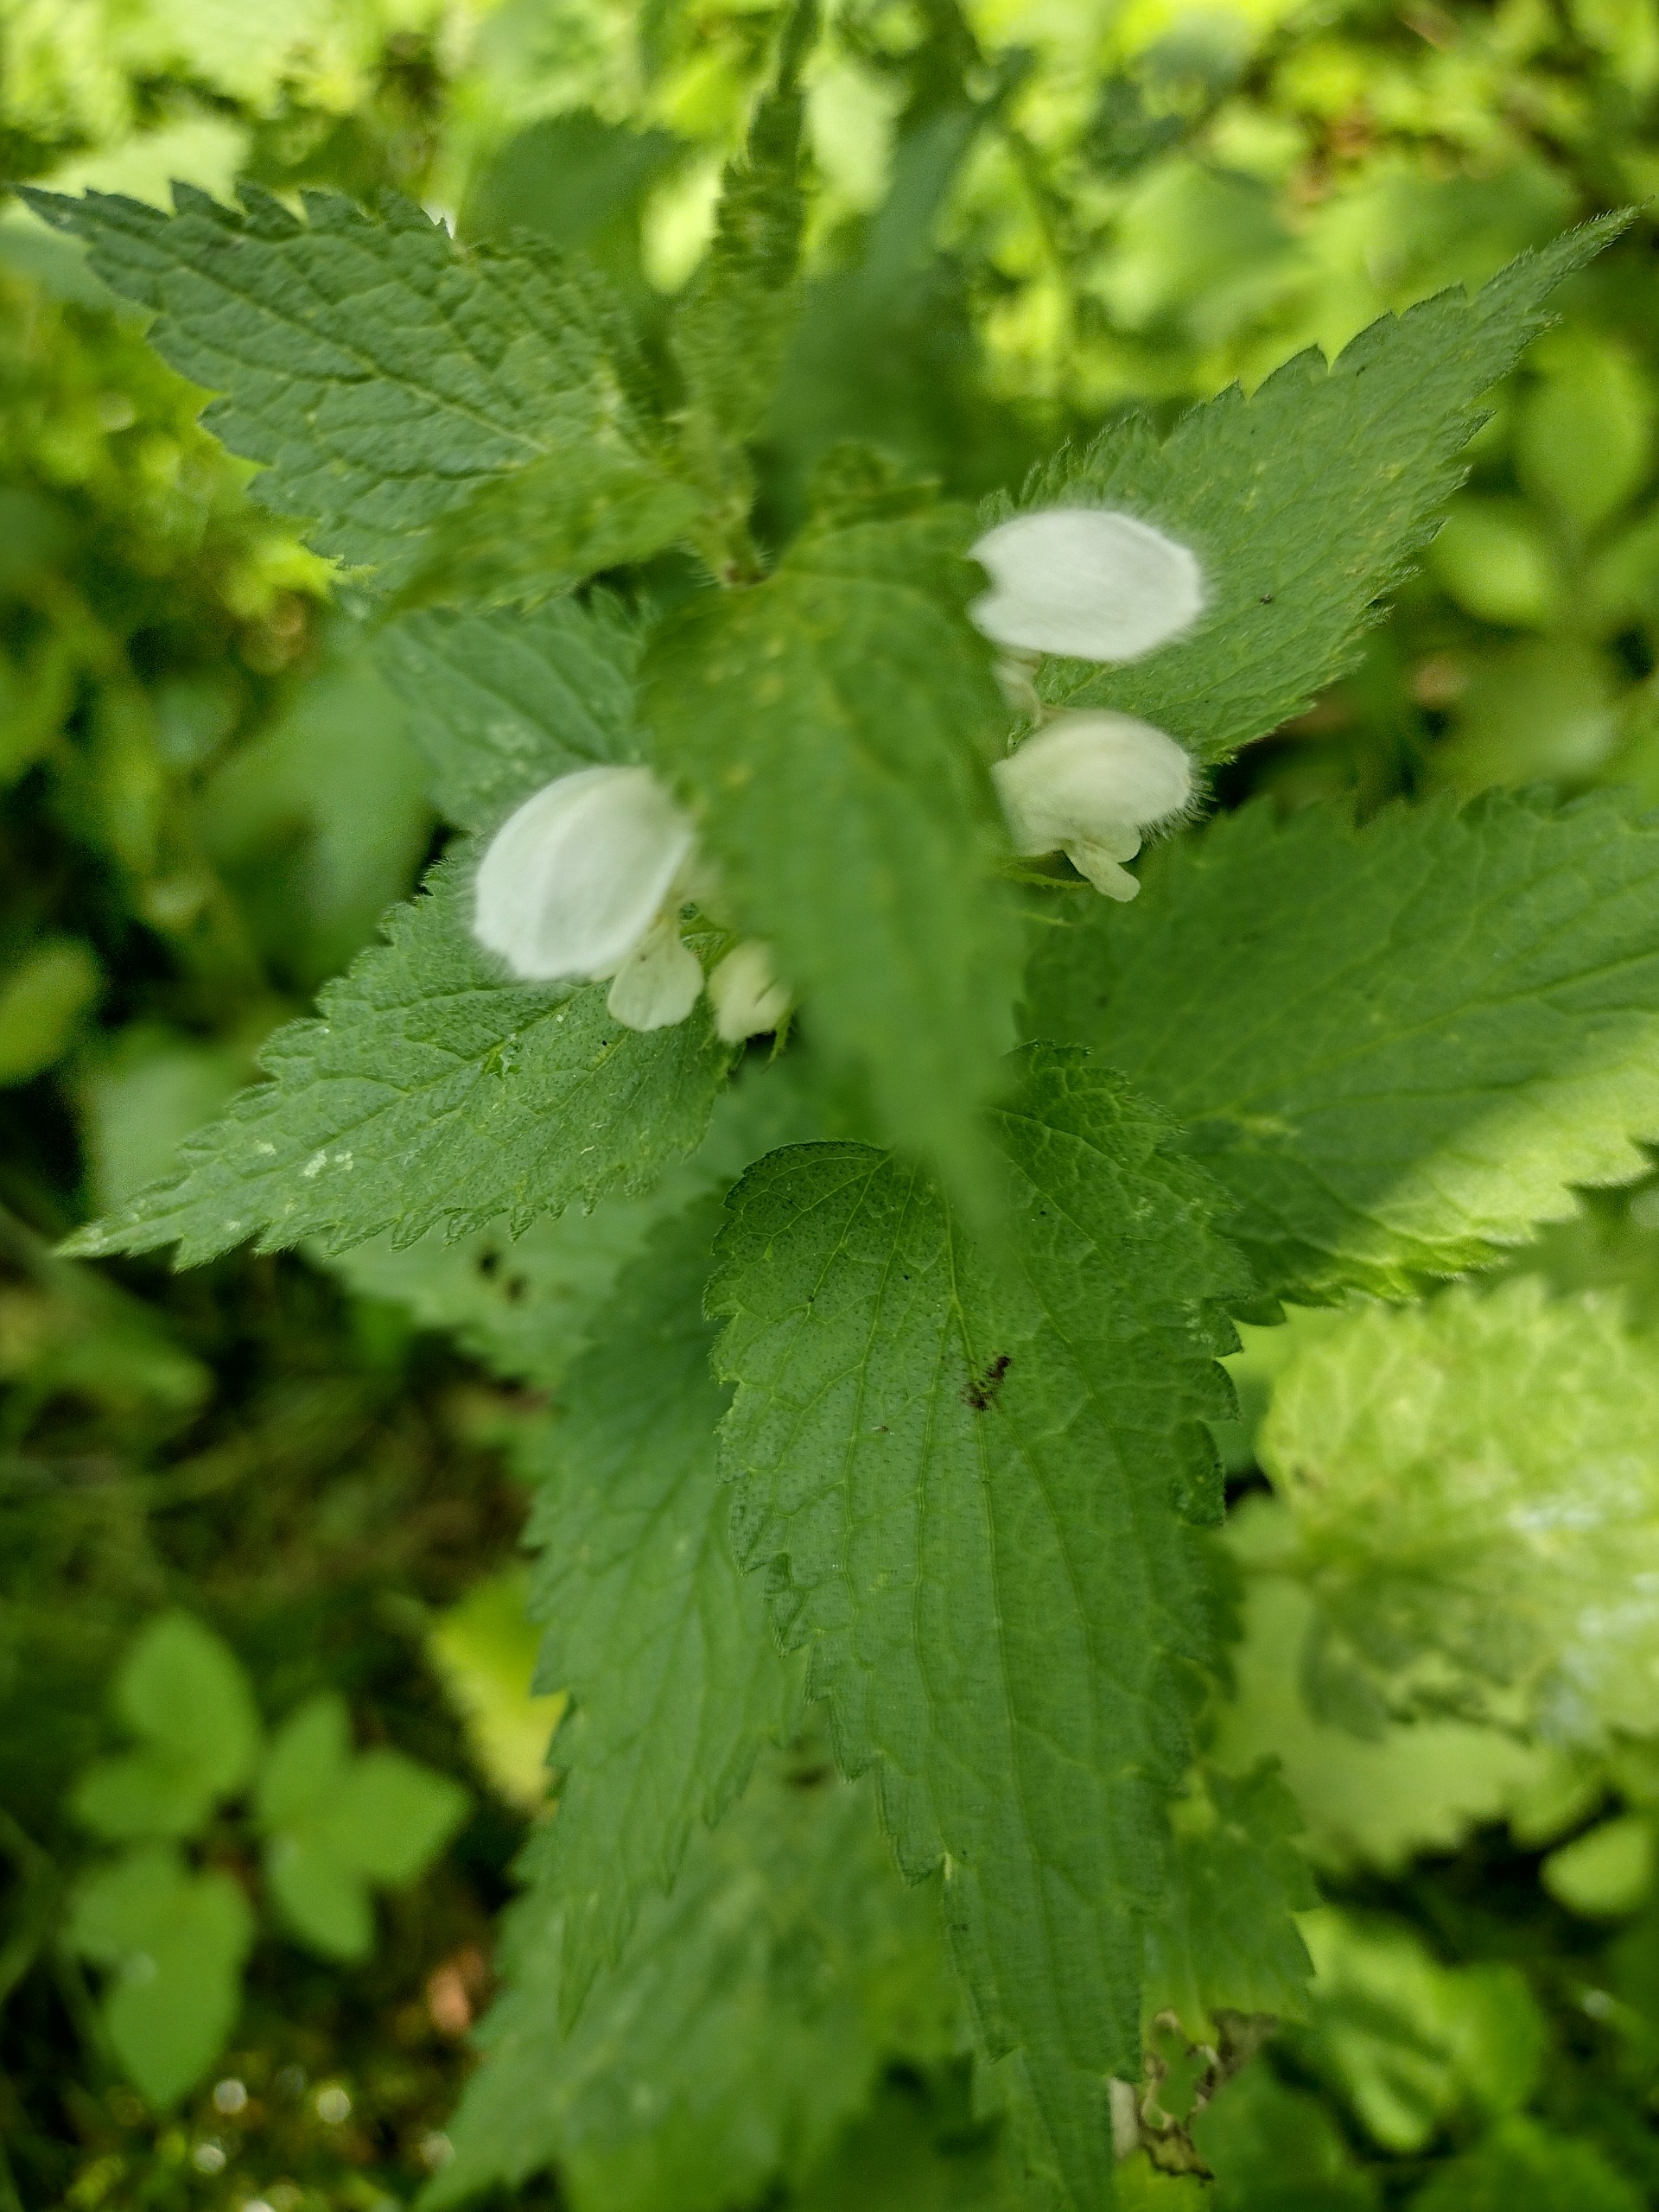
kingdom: Plantae
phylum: Tracheophyta
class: Magnoliopsida
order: Lamiales
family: Lamiaceae
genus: Lamium
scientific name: Lamium album
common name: Døvnælde
